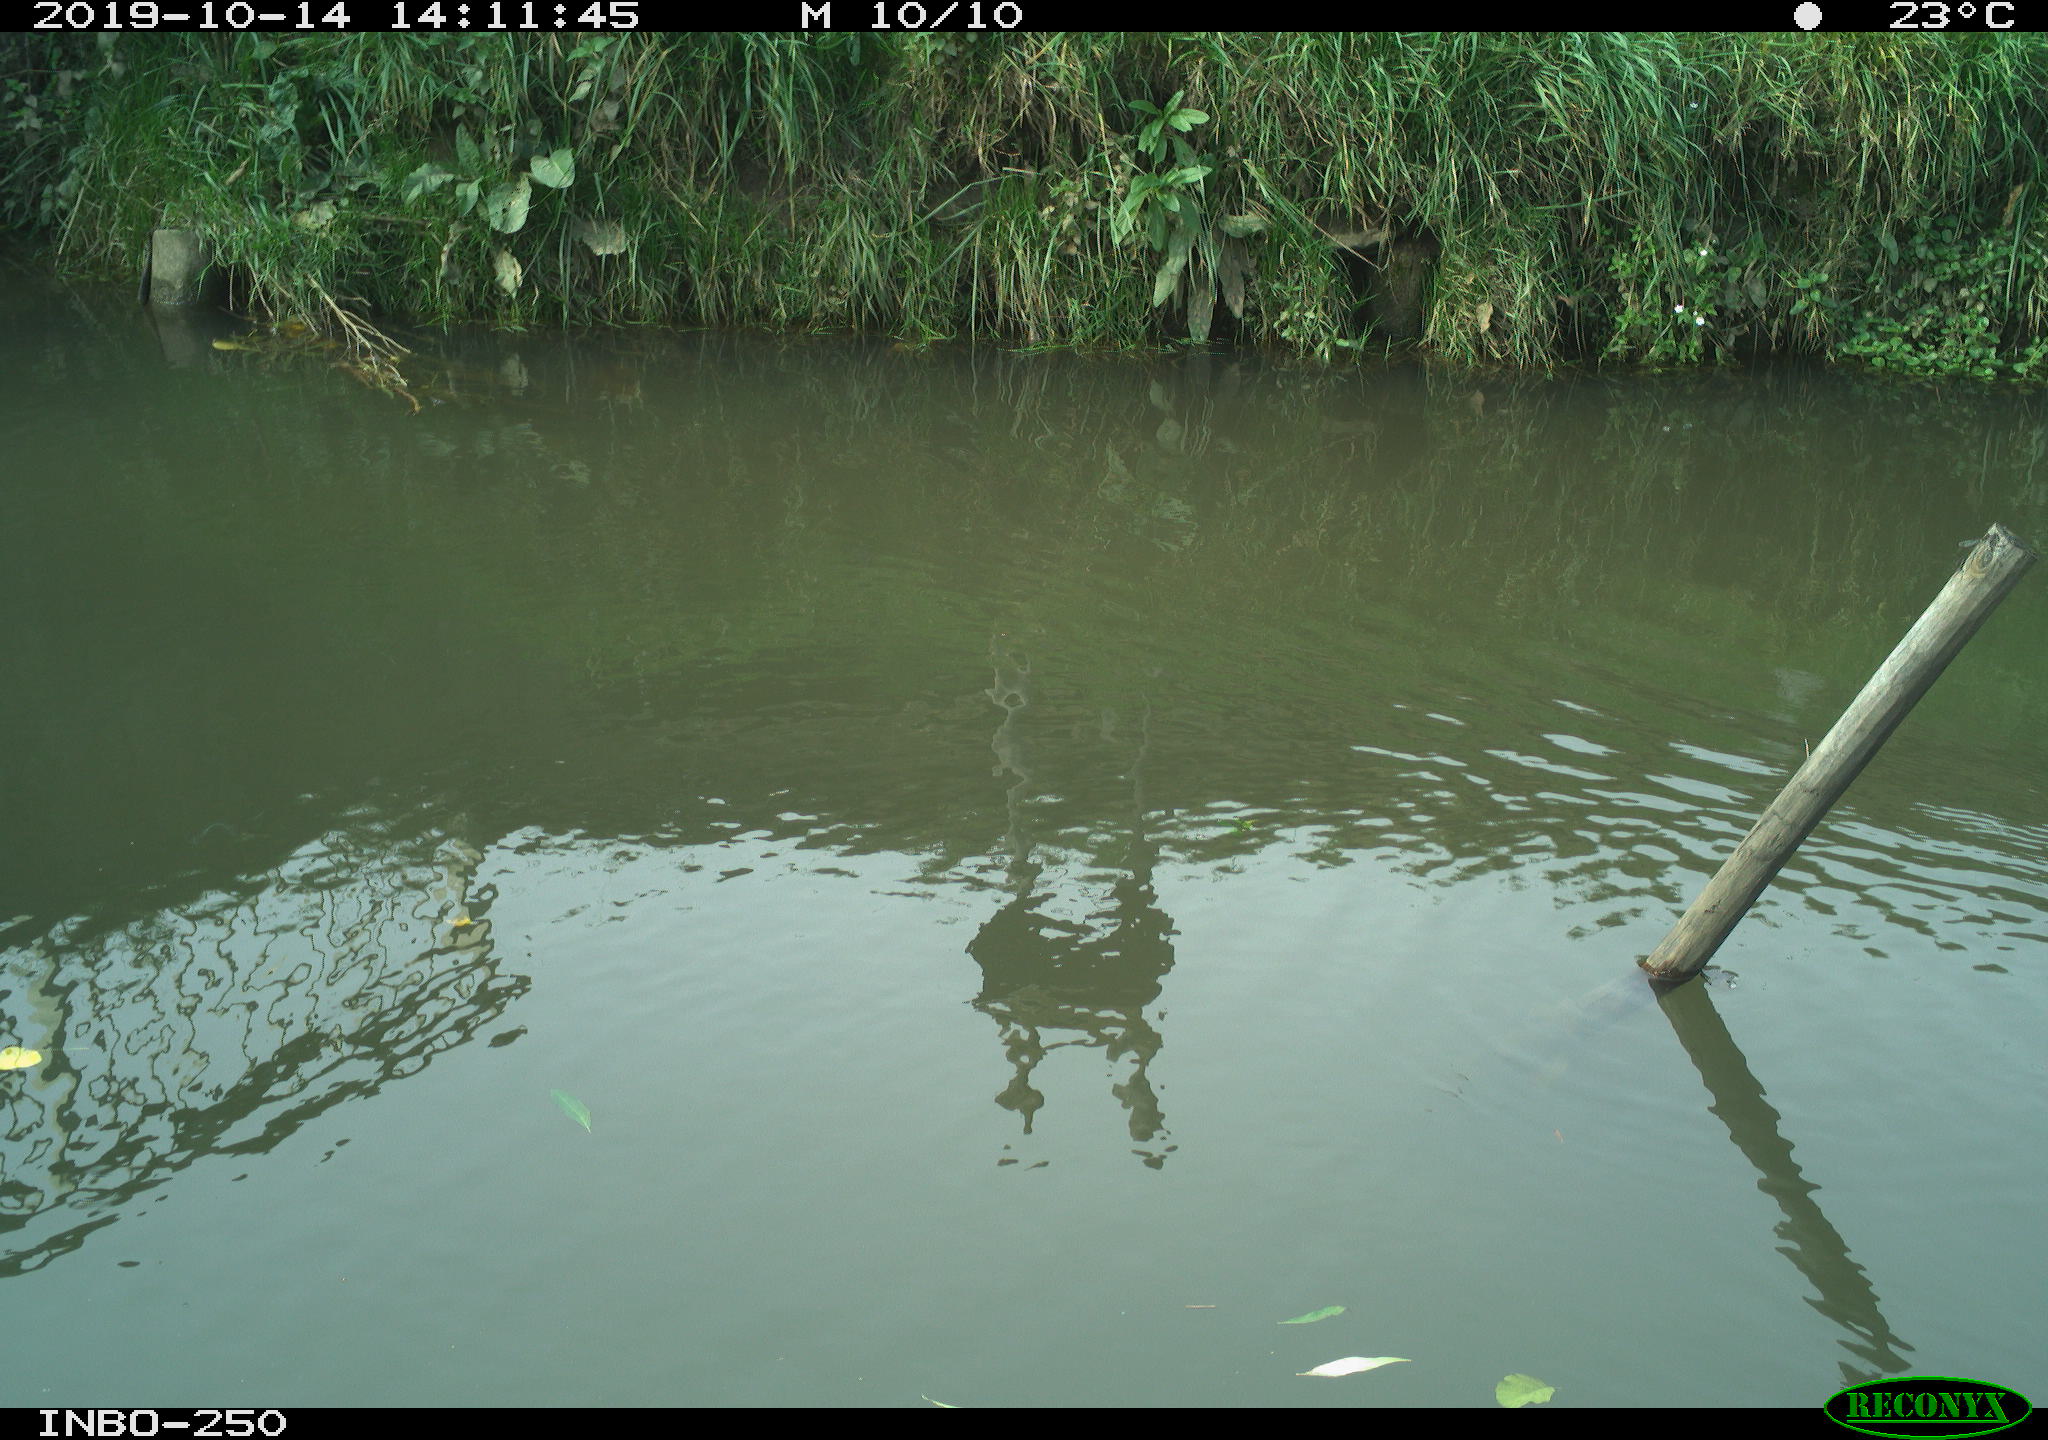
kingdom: Animalia
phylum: Chordata
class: Aves
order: Gruiformes
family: Rallidae
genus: Gallinula
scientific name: Gallinula chloropus
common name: Common moorhen
